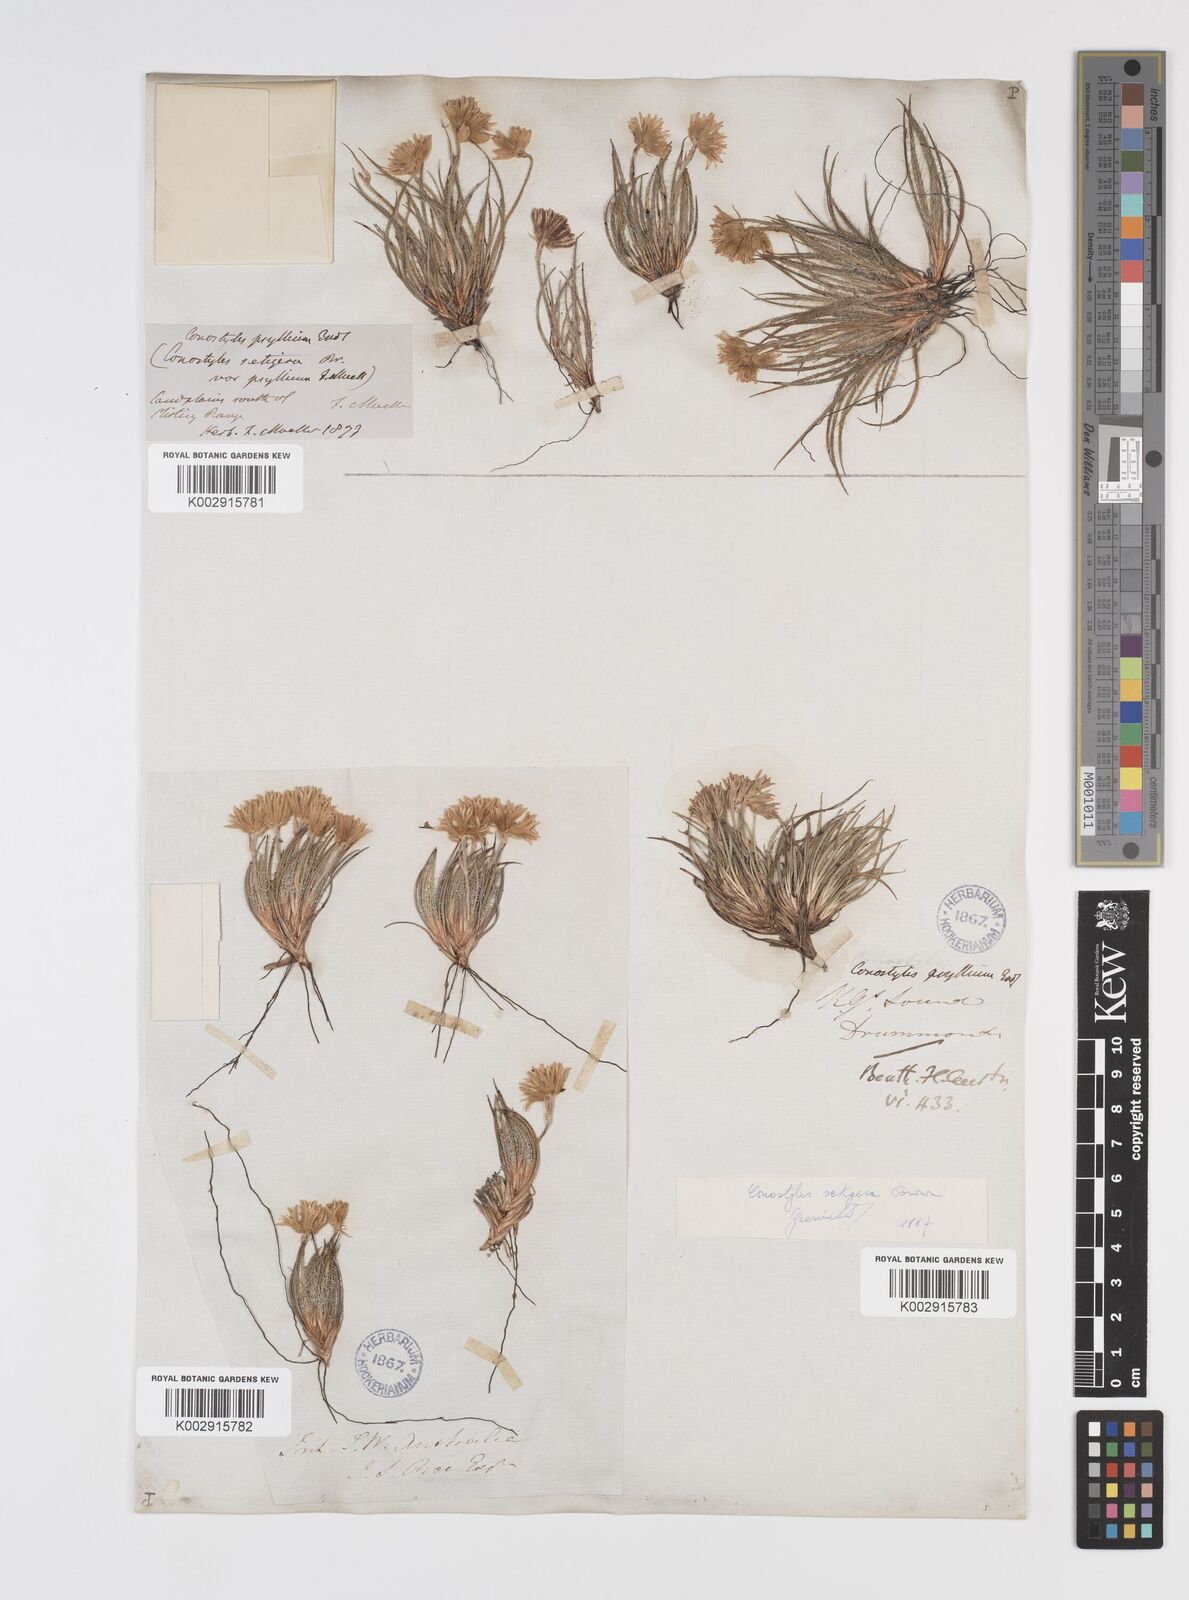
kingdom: Plantae
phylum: Tracheophyta
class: Liliopsida
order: Commelinales
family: Haemodoraceae
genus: Conostylis
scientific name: Conostylis setigera
